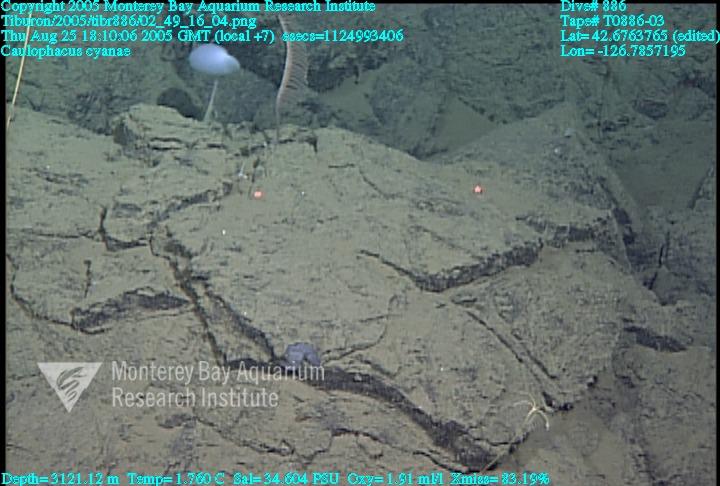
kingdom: Animalia
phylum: Porifera
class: Hexactinellida
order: Lyssacinosida
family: Rossellidae
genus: Caulophacus
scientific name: Caulophacus cyanae
